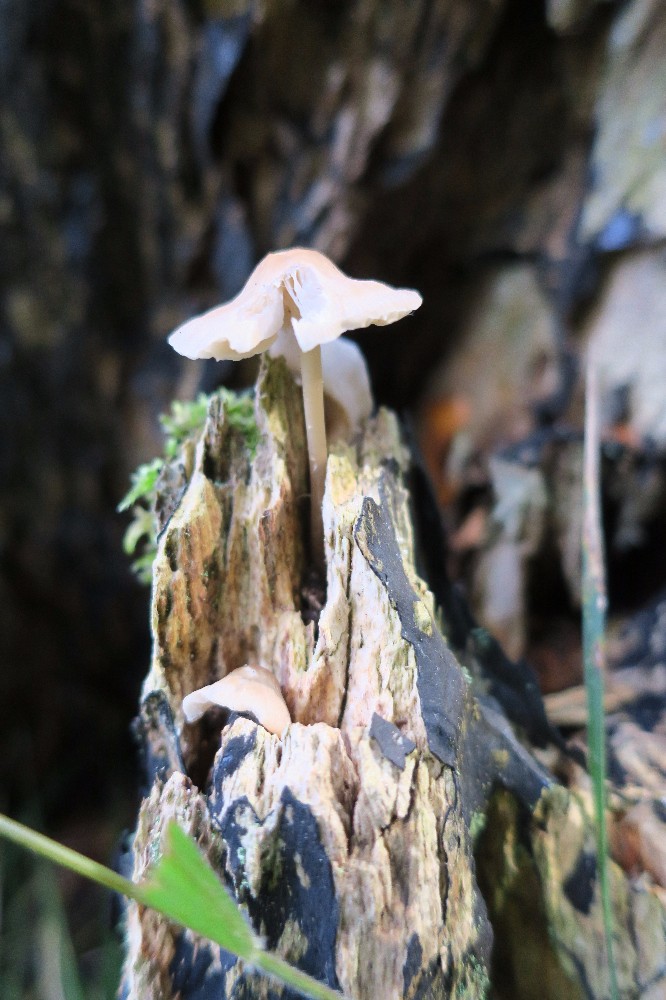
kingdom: Fungi
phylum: Basidiomycota
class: Agaricomycetes
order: Agaricales
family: Mycenaceae
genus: Mycena
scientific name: Mycena vitilis
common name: blankstokket huesvamp
